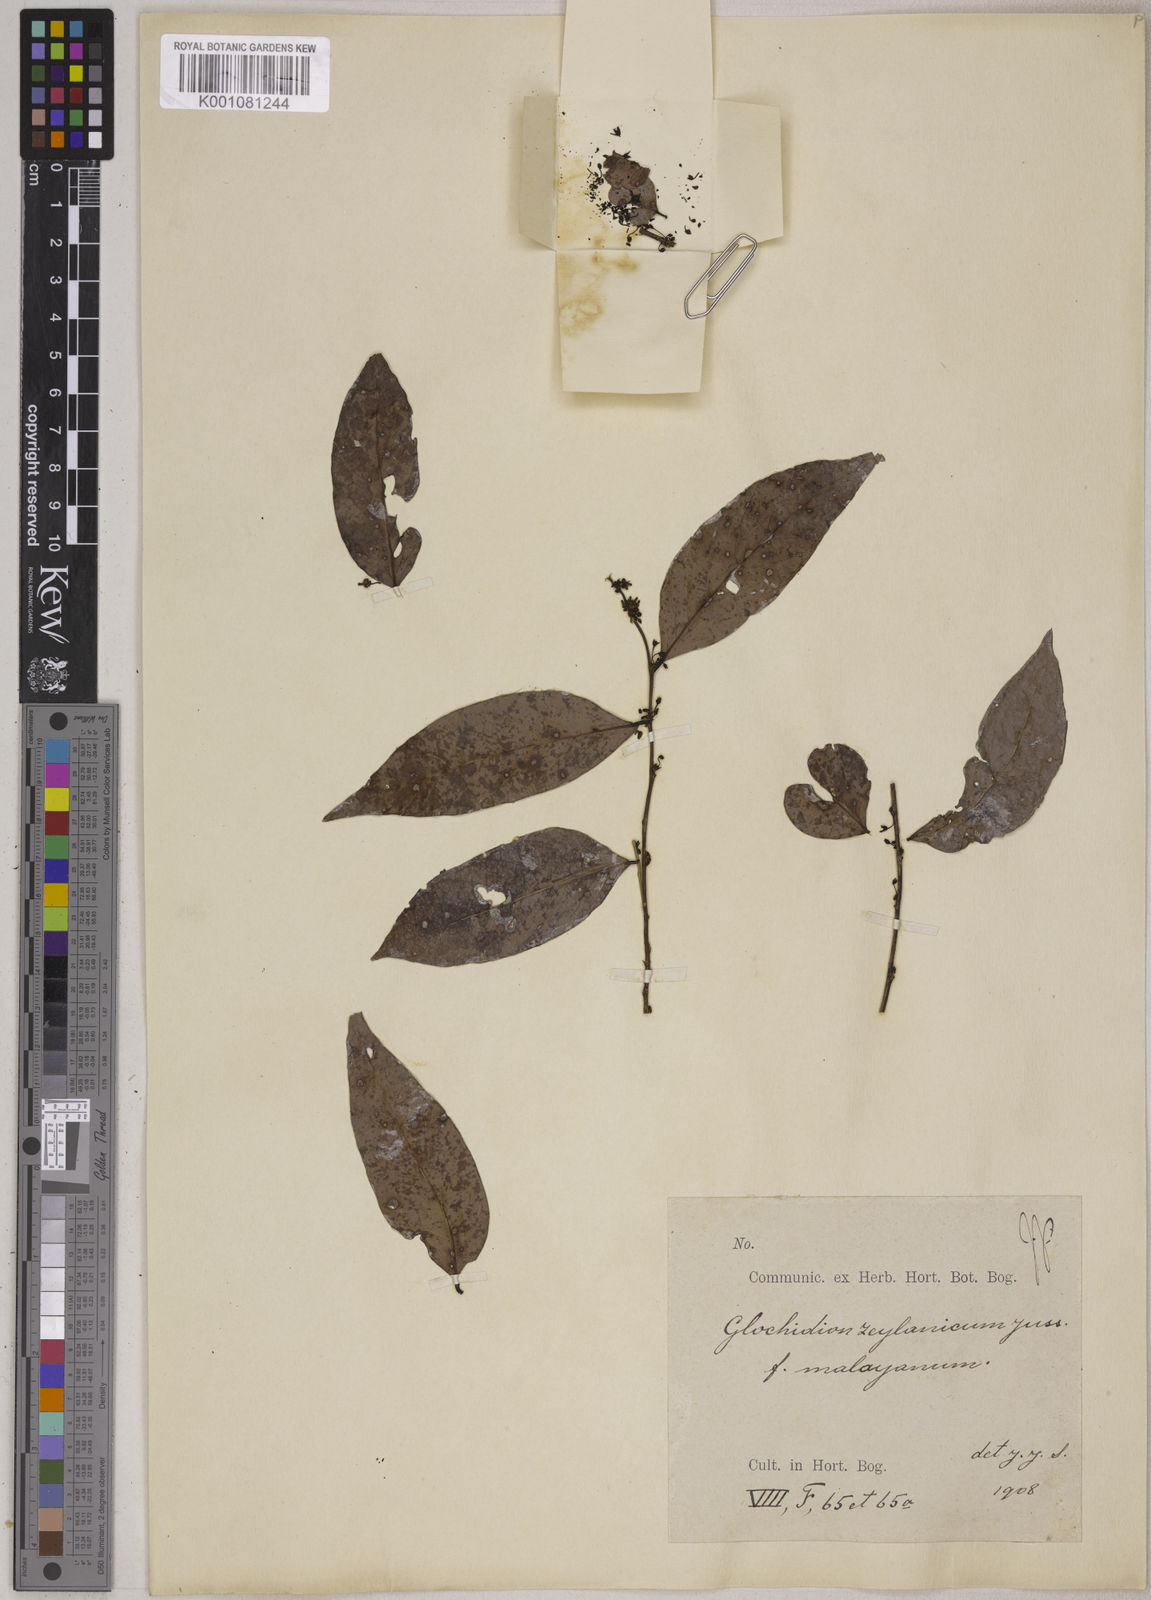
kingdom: Plantae
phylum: Tracheophyta
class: Magnoliopsida
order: Malpighiales
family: Phyllanthaceae
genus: Glochidion
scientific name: Glochidion zeylanicum
